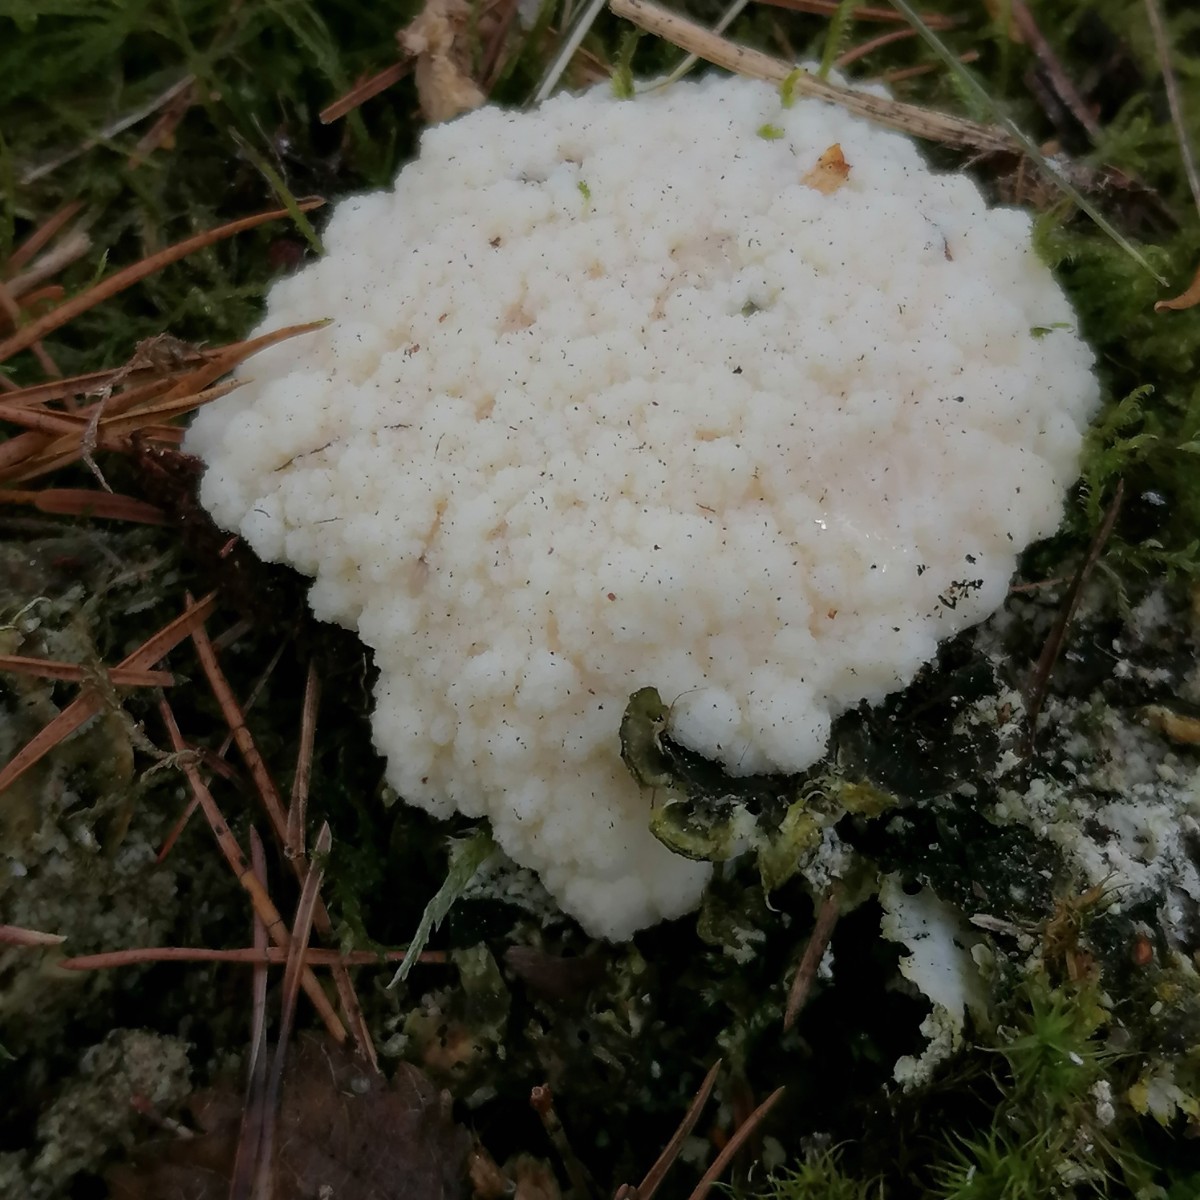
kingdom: Protozoa
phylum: Mycetozoa
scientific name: Mycetozoa
